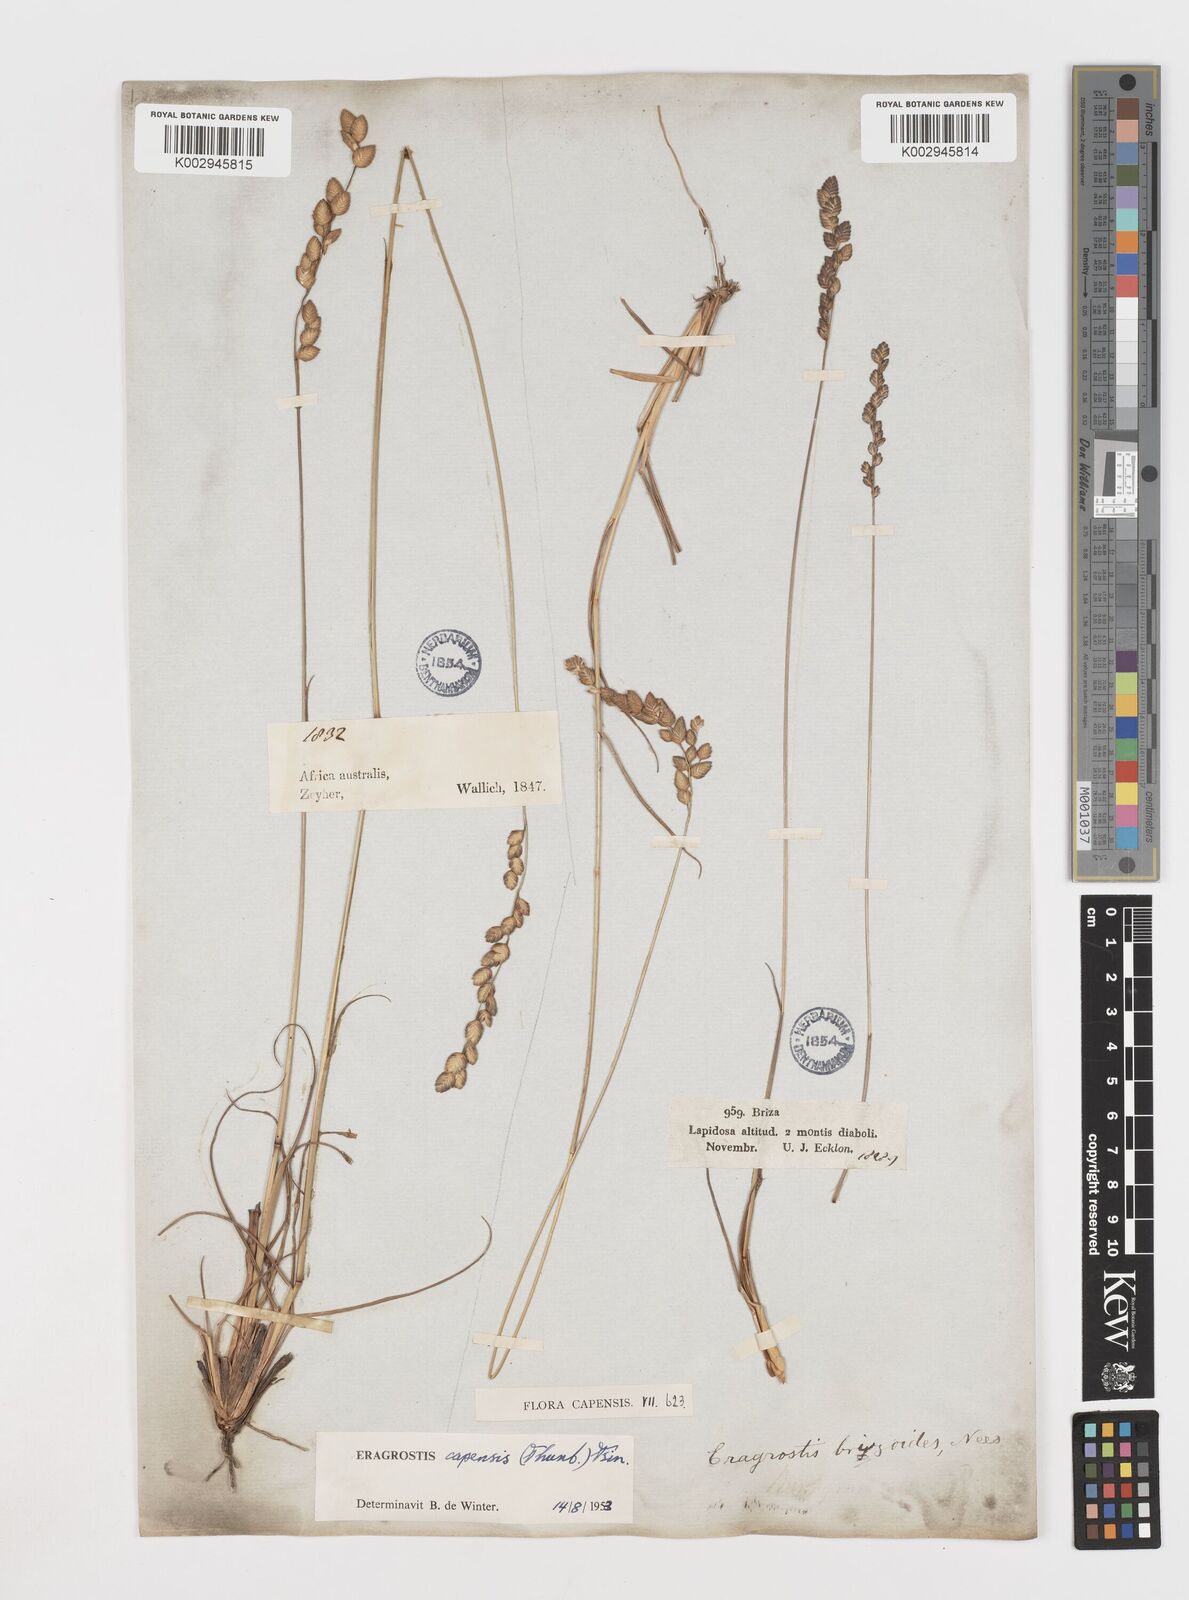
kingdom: Plantae
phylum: Tracheophyta
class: Liliopsida
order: Poales
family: Poaceae
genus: Eragrostis
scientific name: Eragrostis capensis
